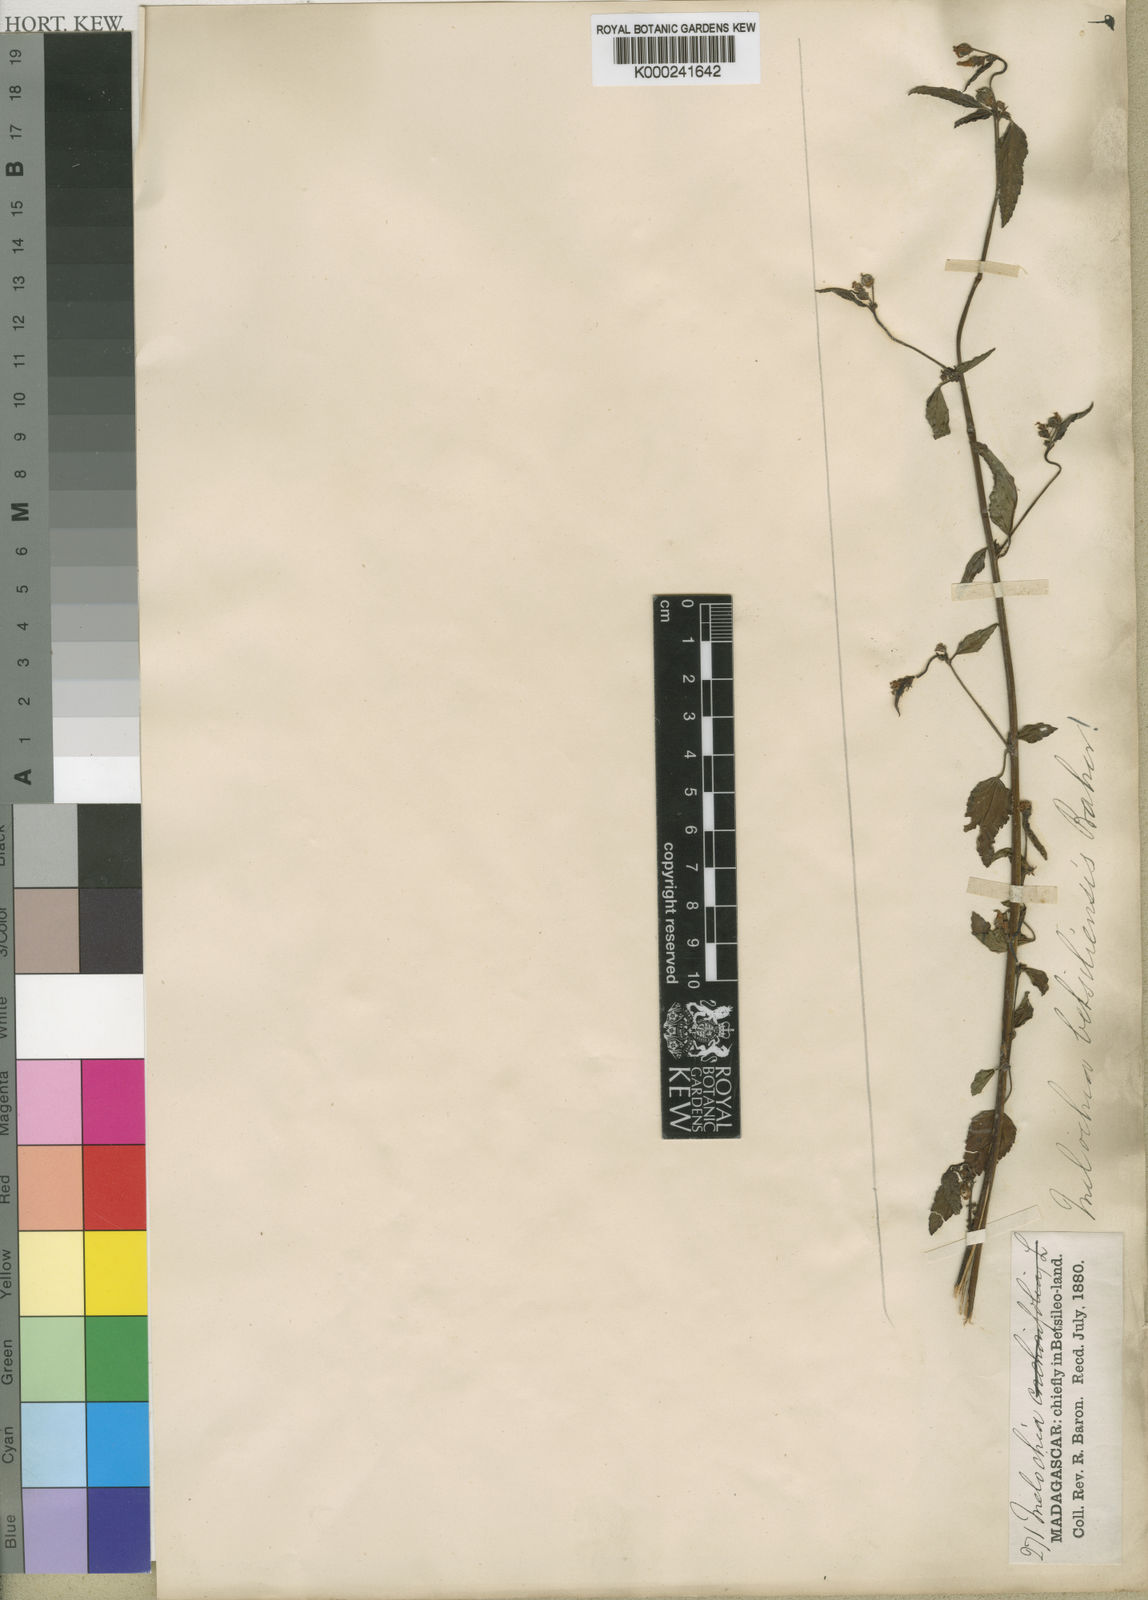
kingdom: Plantae
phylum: Tracheophyta
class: Magnoliopsida
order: Malvales
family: Malvaceae
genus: Melochia
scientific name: Melochia betsiliensis
